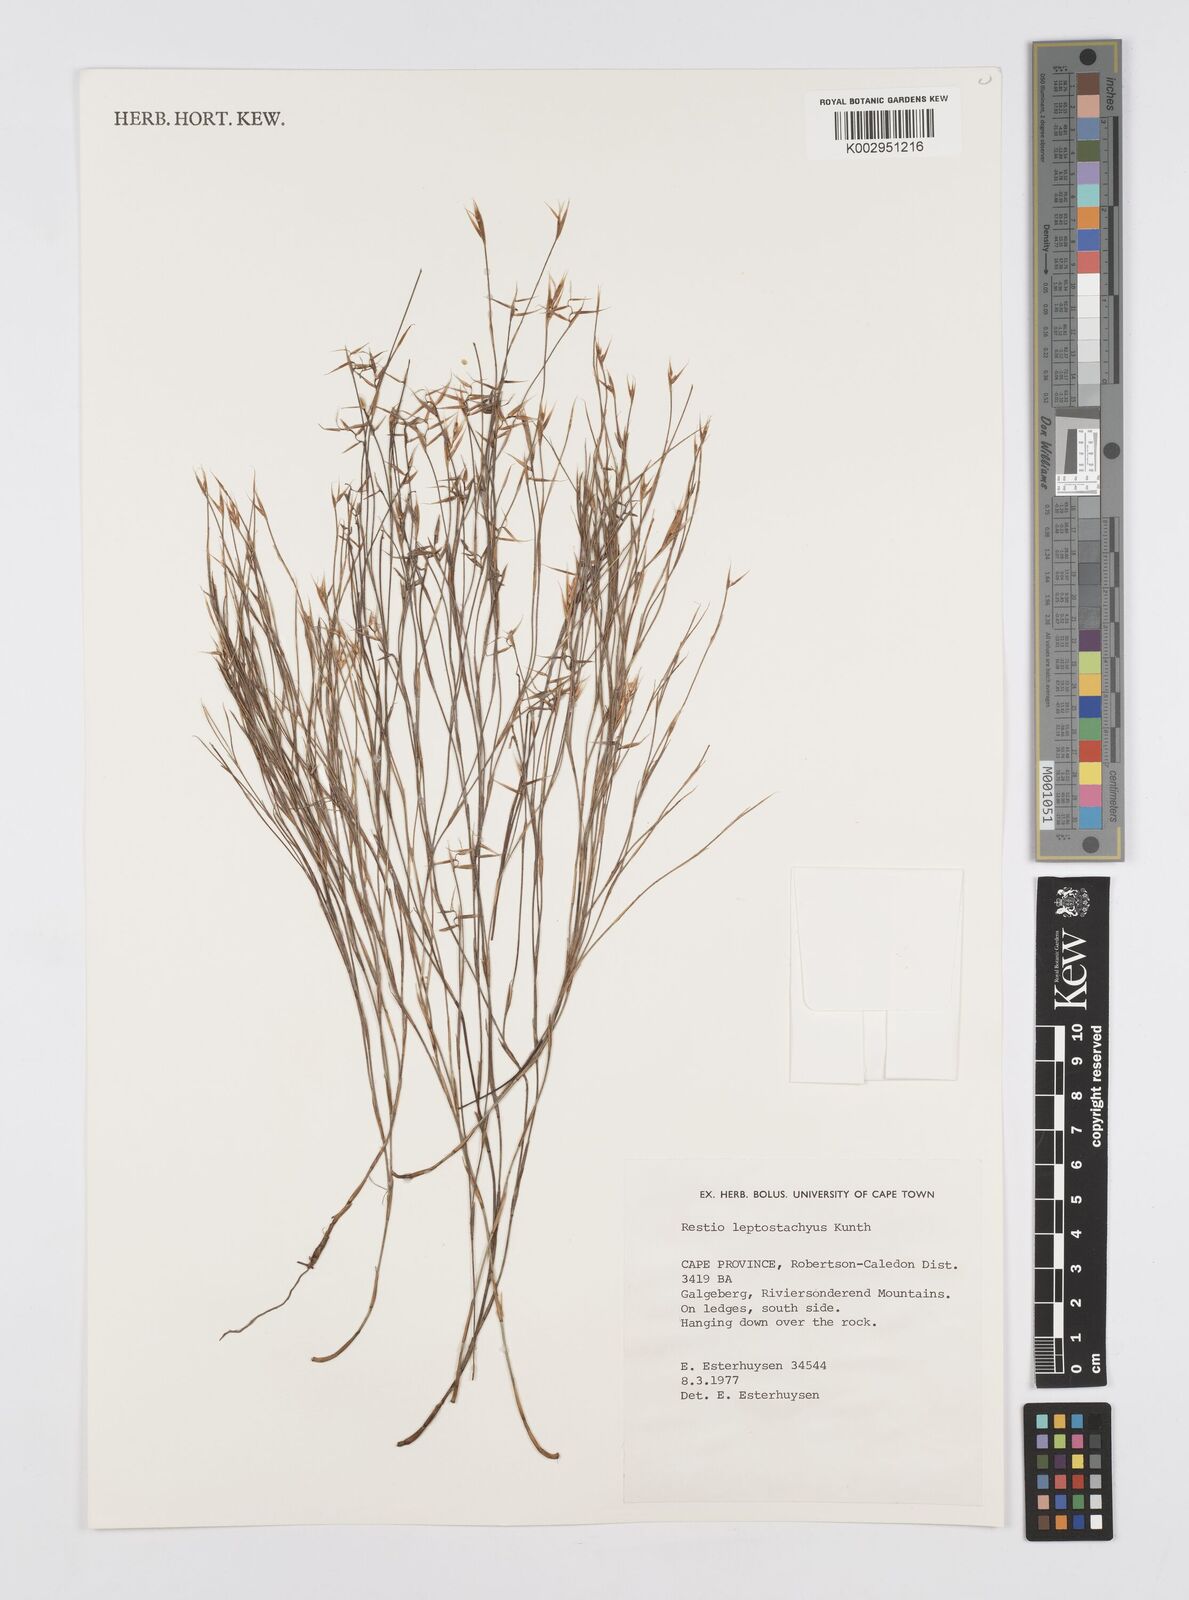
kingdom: Plantae
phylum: Tracheophyta
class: Liliopsida
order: Poales
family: Restionaceae
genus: Restio
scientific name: Restio leptostachyus
